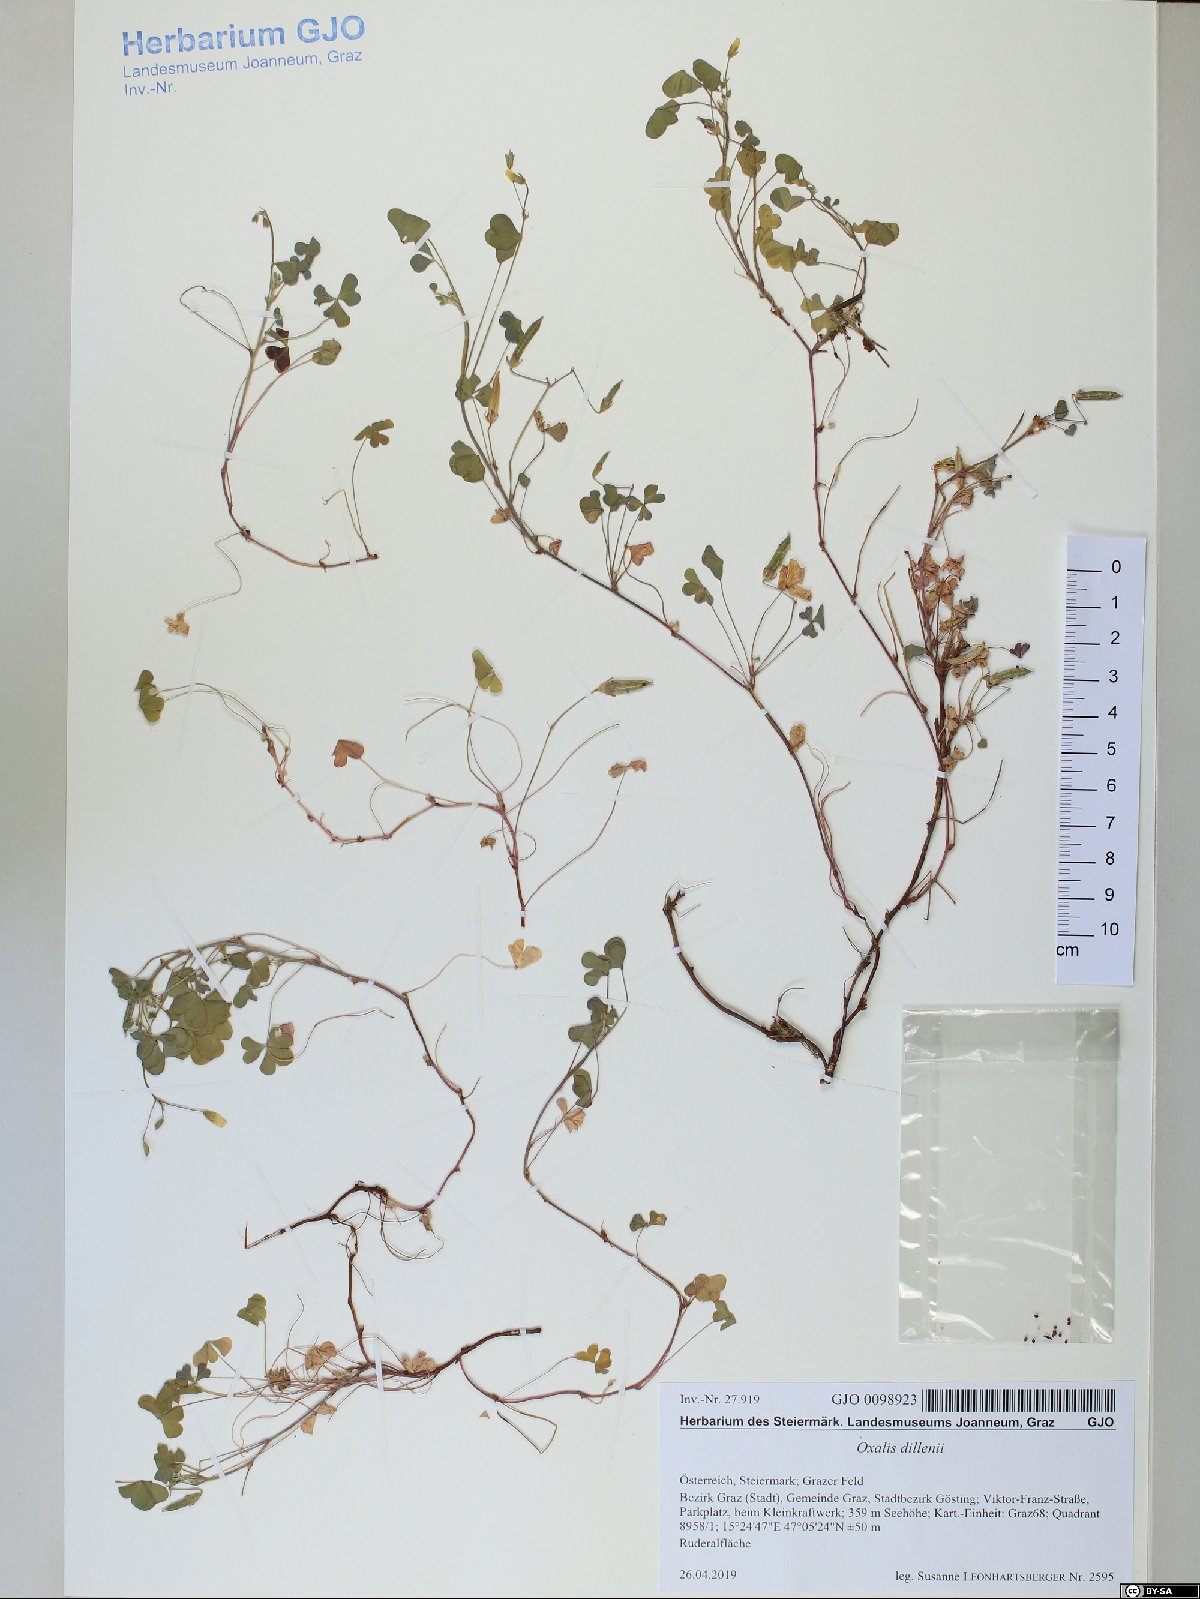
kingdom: Plantae
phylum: Tracheophyta
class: Magnoliopsida
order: Oxalidales
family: Oxalidaceae
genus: Oxalis
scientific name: Oxalis corniculata
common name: Procumbent yellow-sorrel
